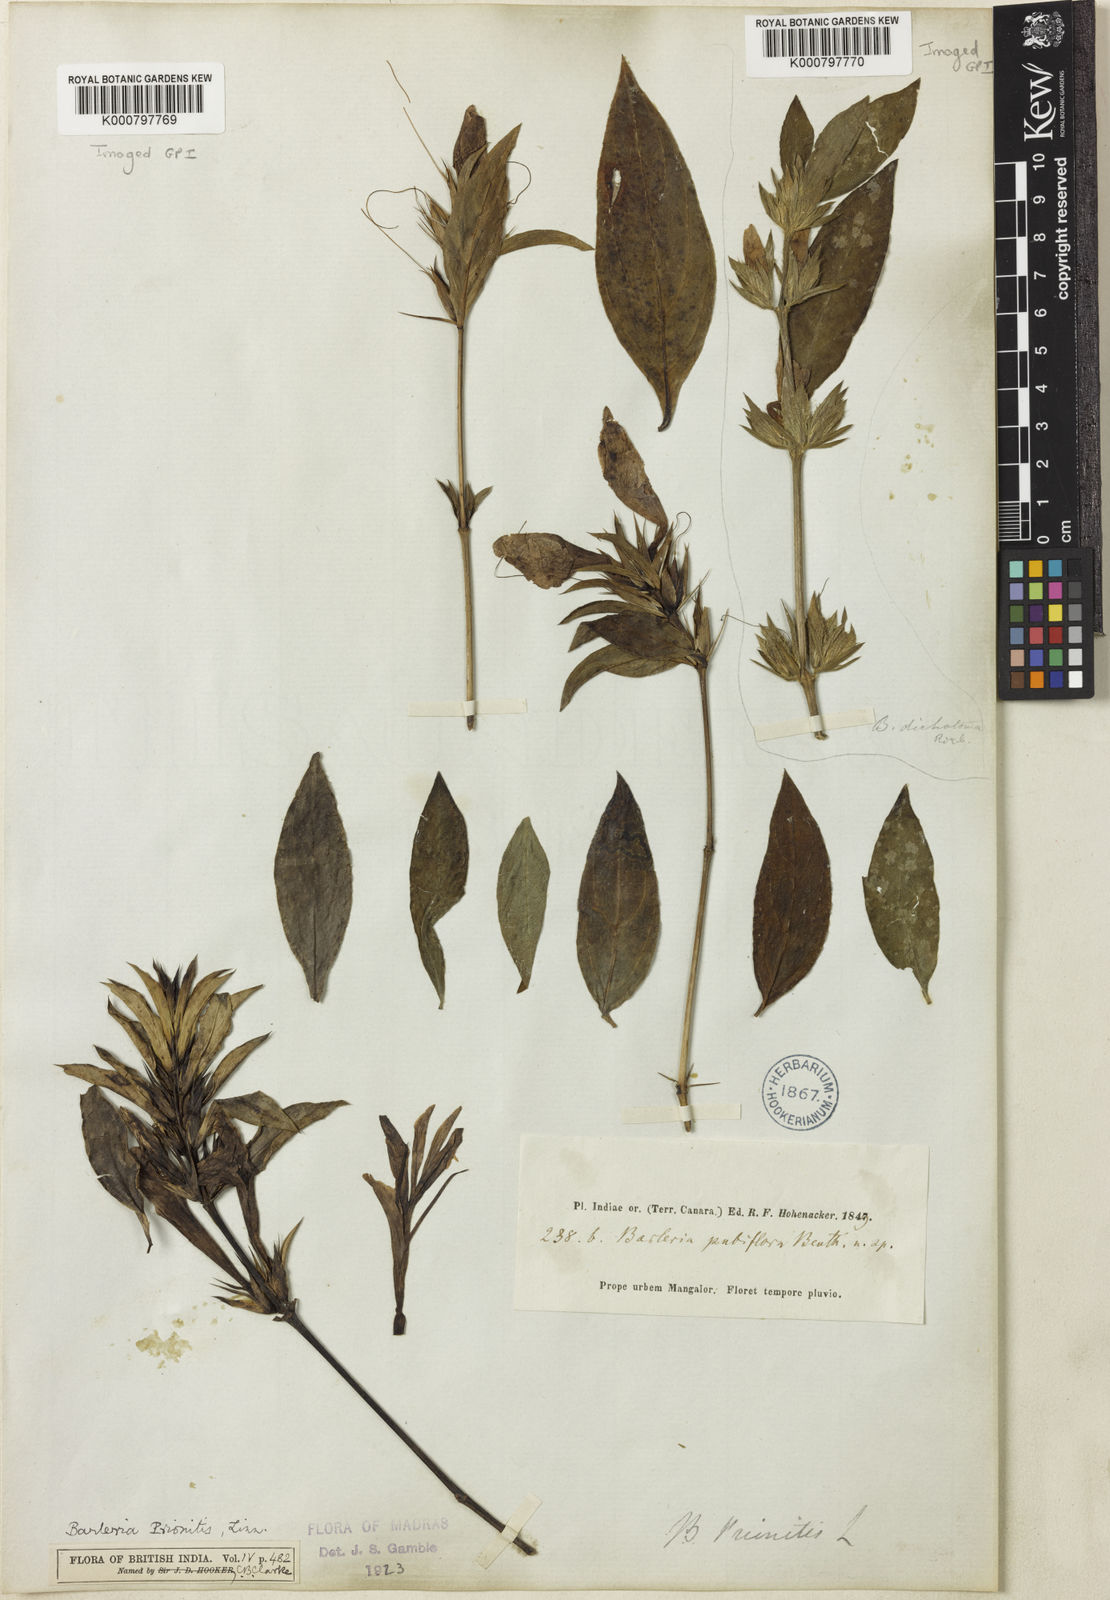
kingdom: Plantae
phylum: Tracheophyta
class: Magnoliopsida
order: Lamiales
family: Acanthaceae
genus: Barleria
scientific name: Barleria prionitis
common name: Barleria
